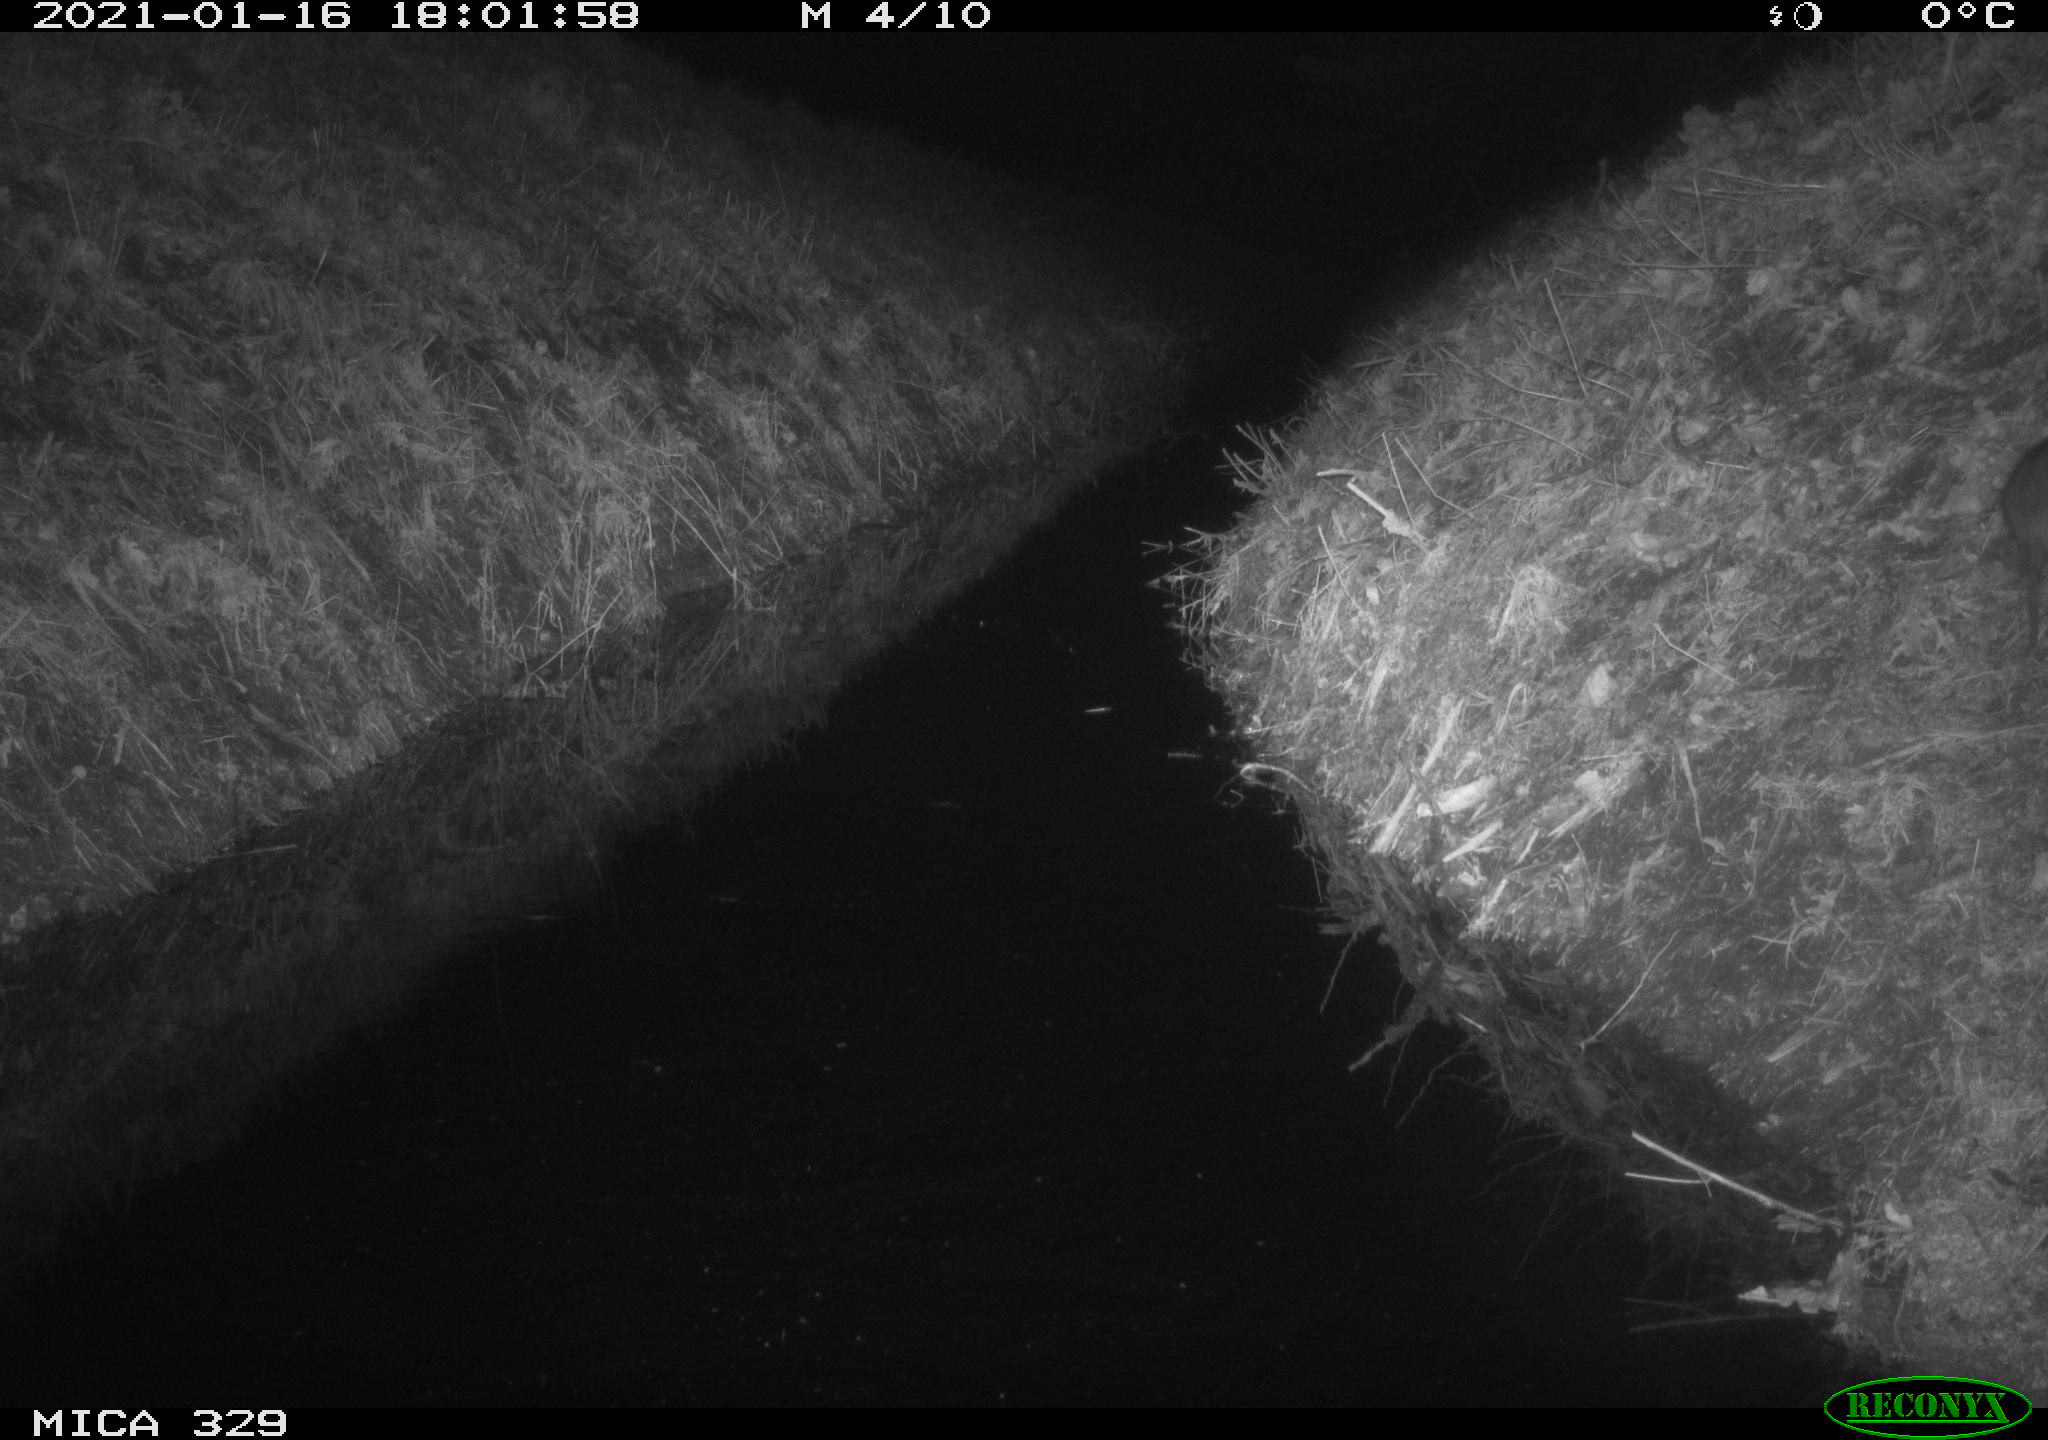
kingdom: Animalia
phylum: Chordata
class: Mammalia
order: Rodentia
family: Muridae
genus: Rattus
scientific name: Rattus norvegicus
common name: Brown rat
